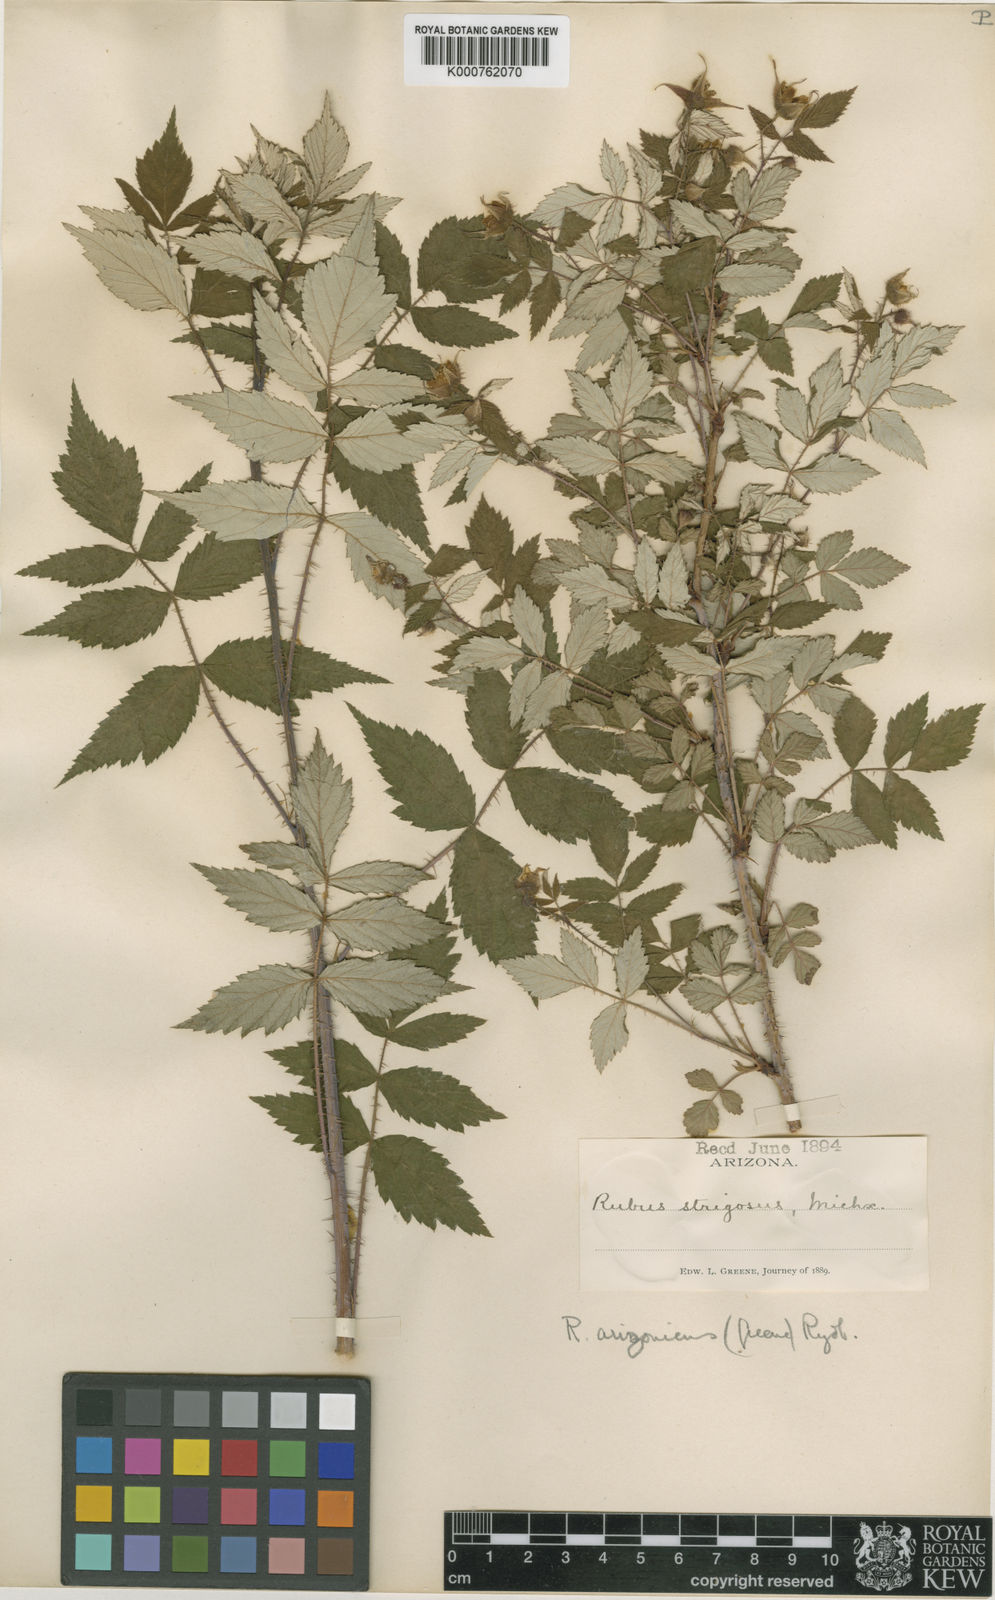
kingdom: Plantae
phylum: Tracheophyta
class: Magnoliopsida
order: Rosales
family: Rosaceae
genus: Rubus
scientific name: Rubus idaeus
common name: Raspberry
